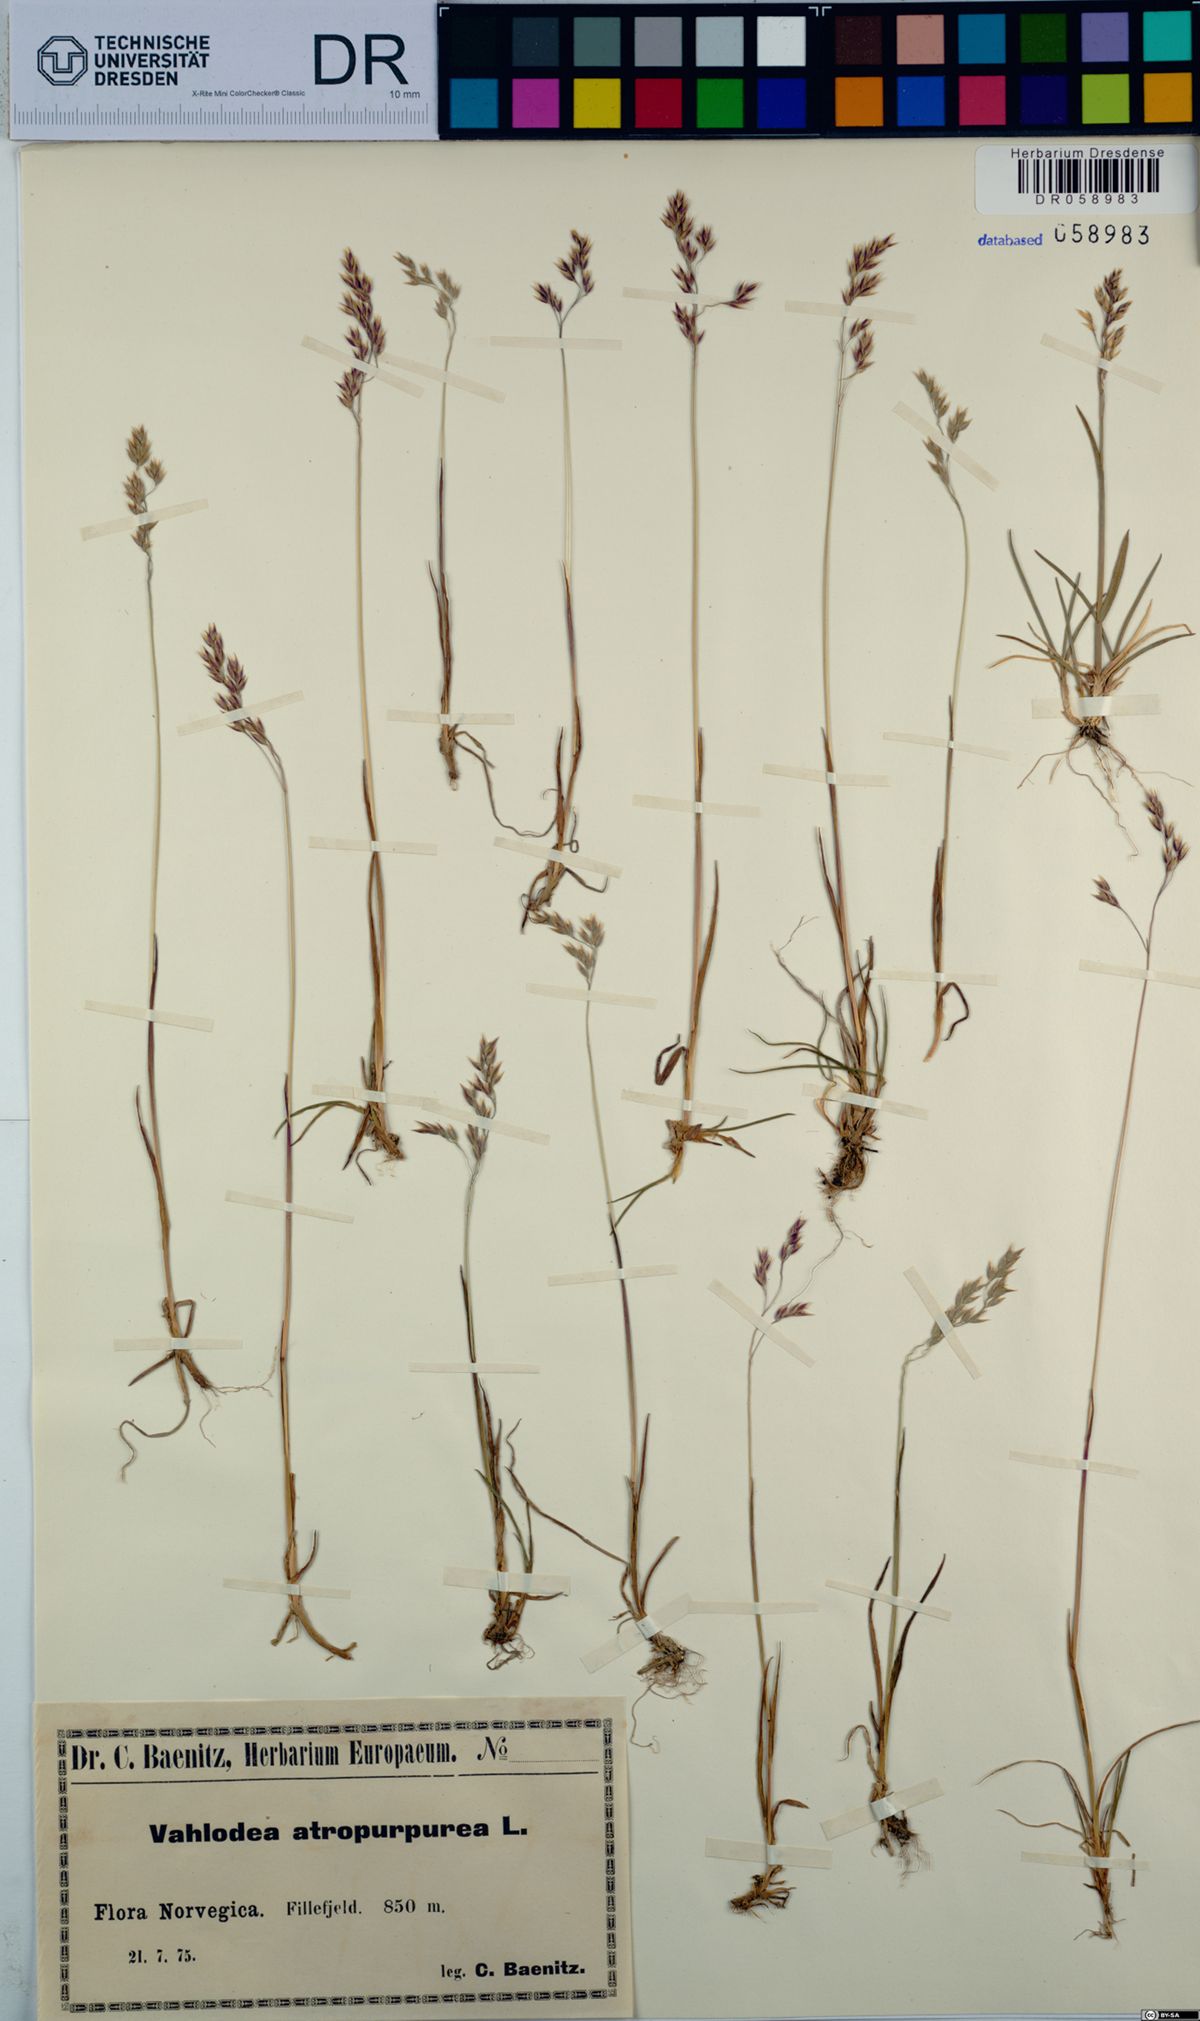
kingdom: Plantae
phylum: Tracheophyta
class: Liliopsida
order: Poales
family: Poaceae
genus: Vahlodea
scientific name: Vahlodea atropurpurea
